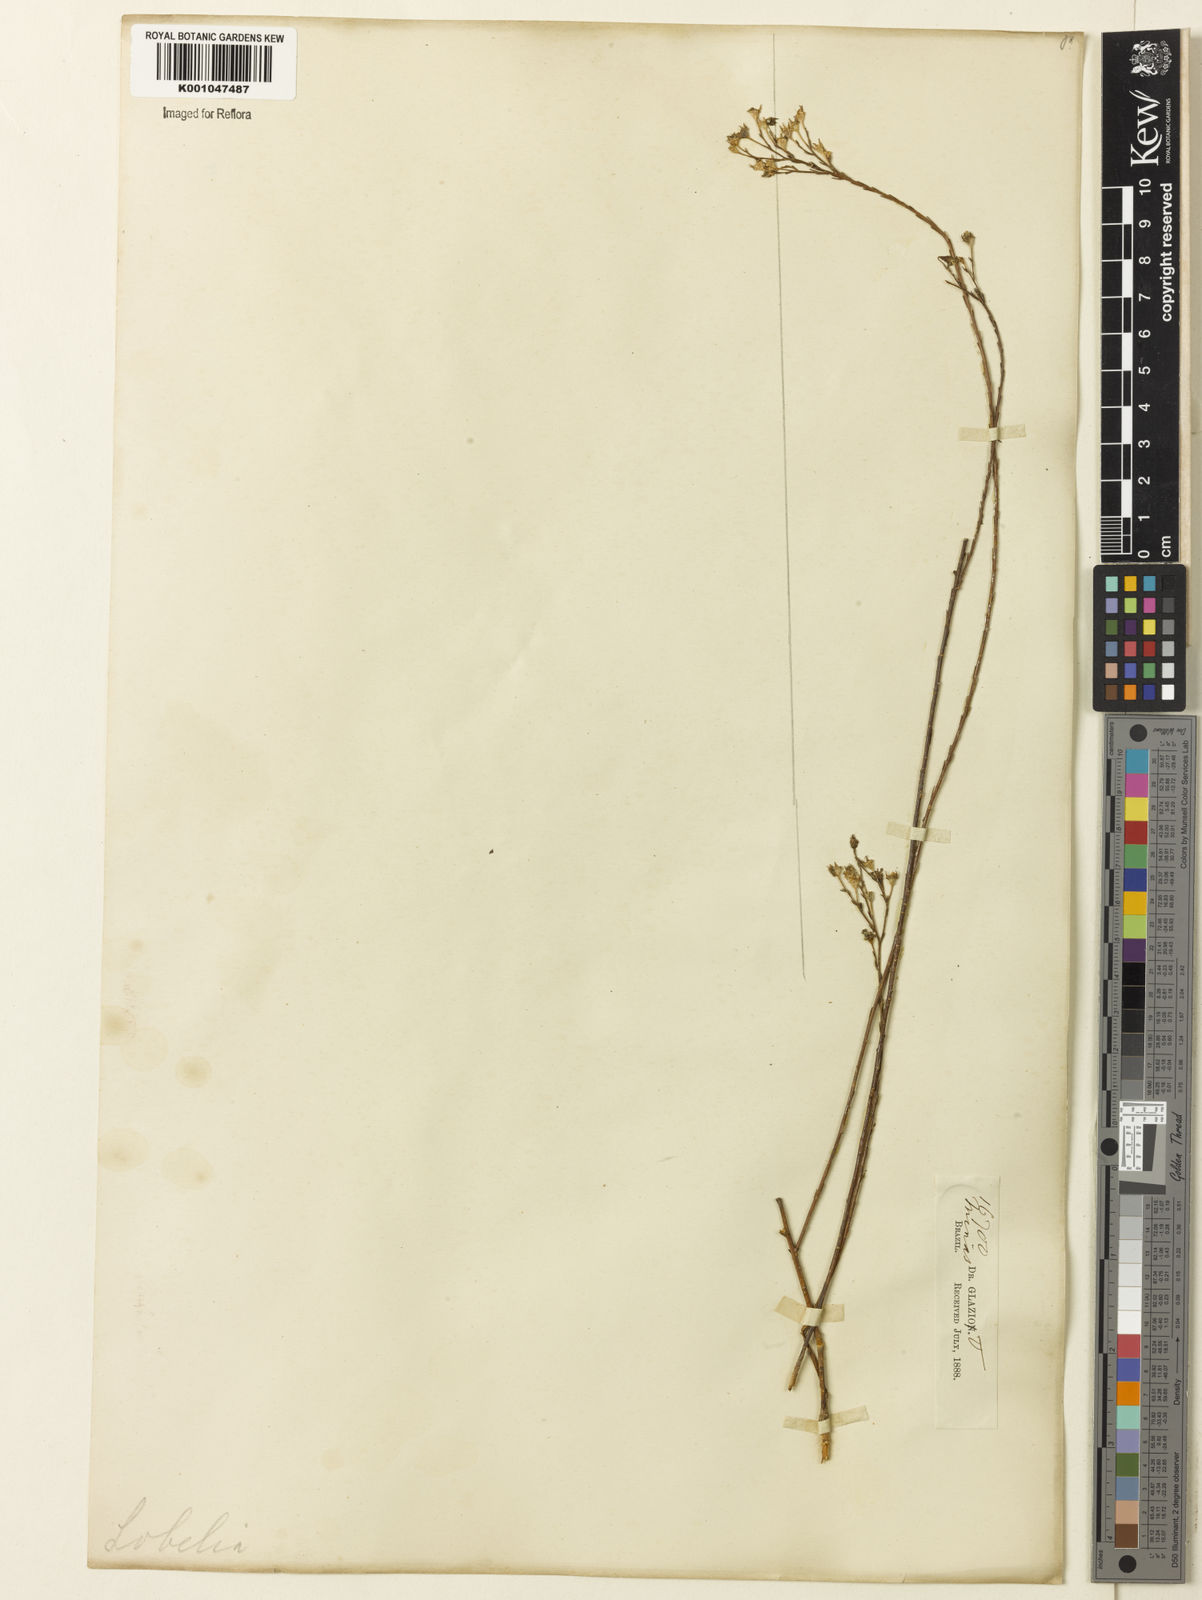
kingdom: Plantae
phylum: Tracheophyta
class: Magnoliopsida
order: Asterales
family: Campanulaceae
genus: Wahlenbergia
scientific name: Wahlenbergia brasiliensis
